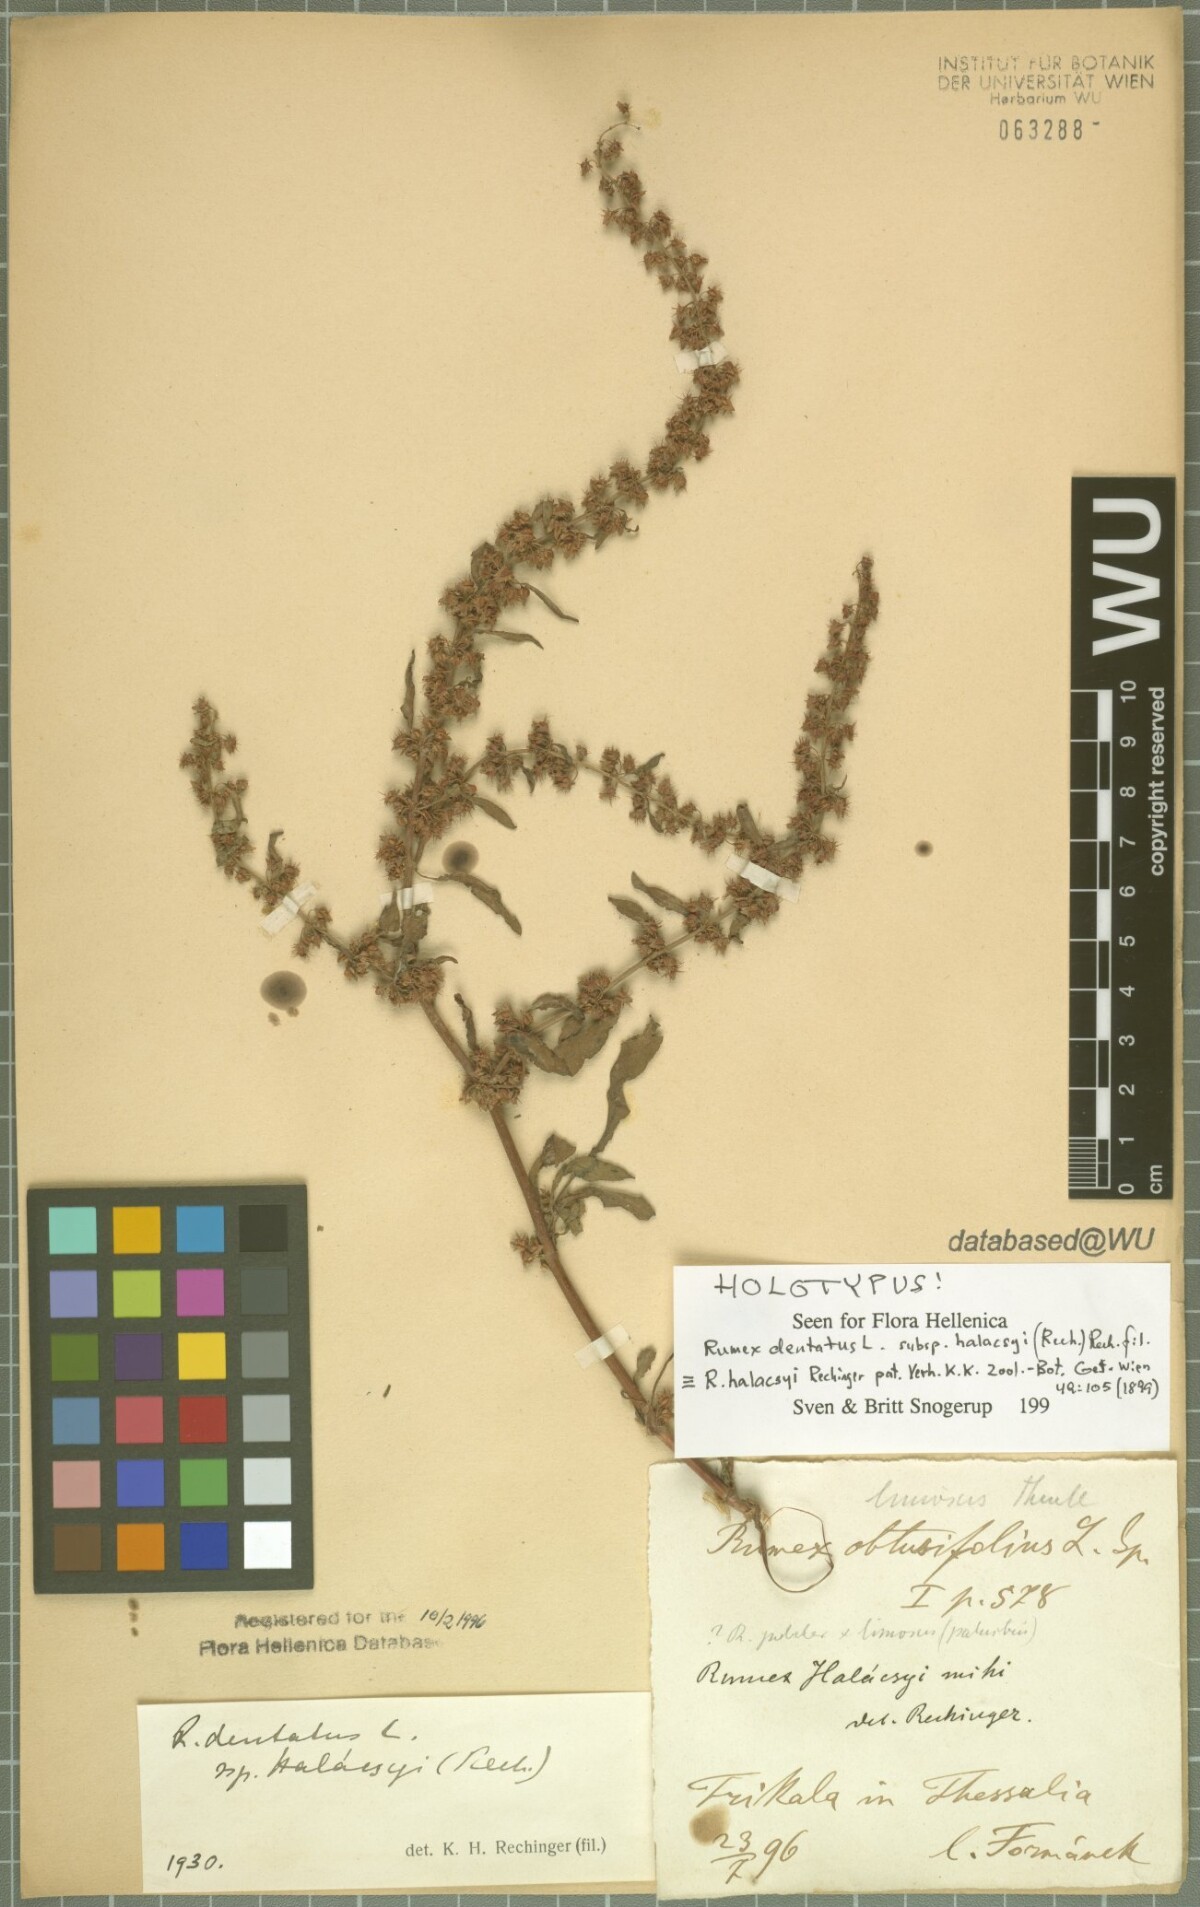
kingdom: Plantae
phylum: Tracheophyta
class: Magnoliopsida
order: Caryophyllales
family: Polygonaceae
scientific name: Polygonaceae
